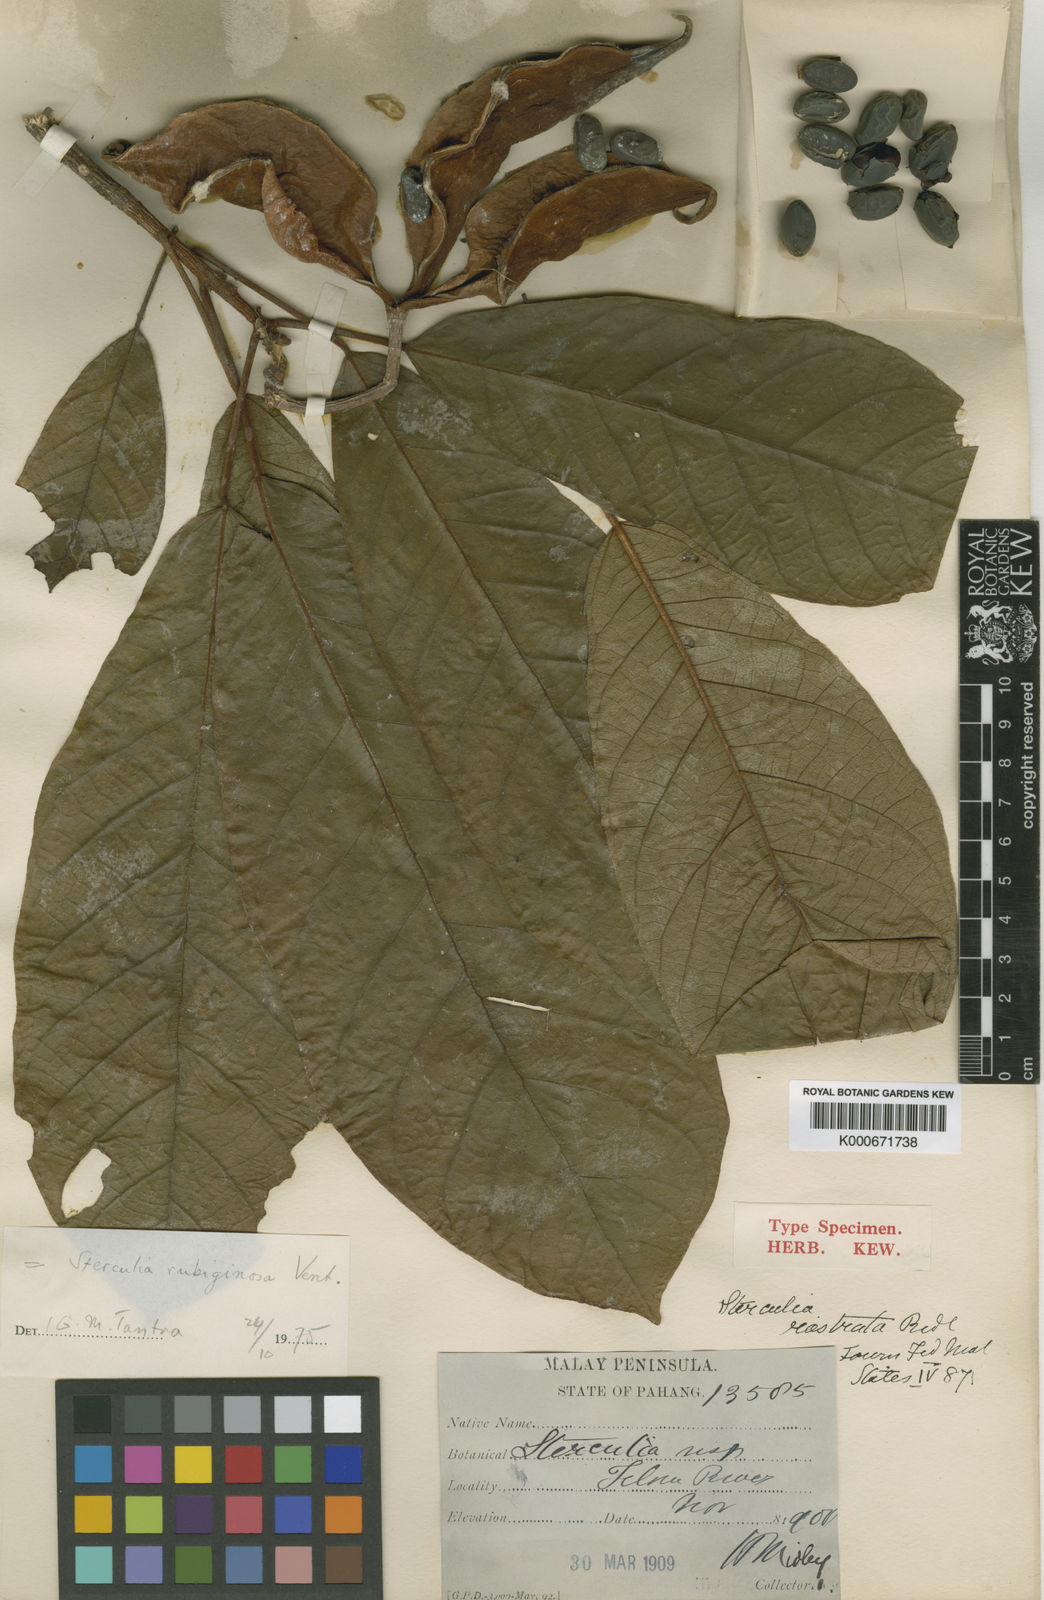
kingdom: Plantae
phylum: Tracheophyta
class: Magnoliopsida
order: Malvales
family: Malvaceae
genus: Sterculia
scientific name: Sterculia rubiginosa
